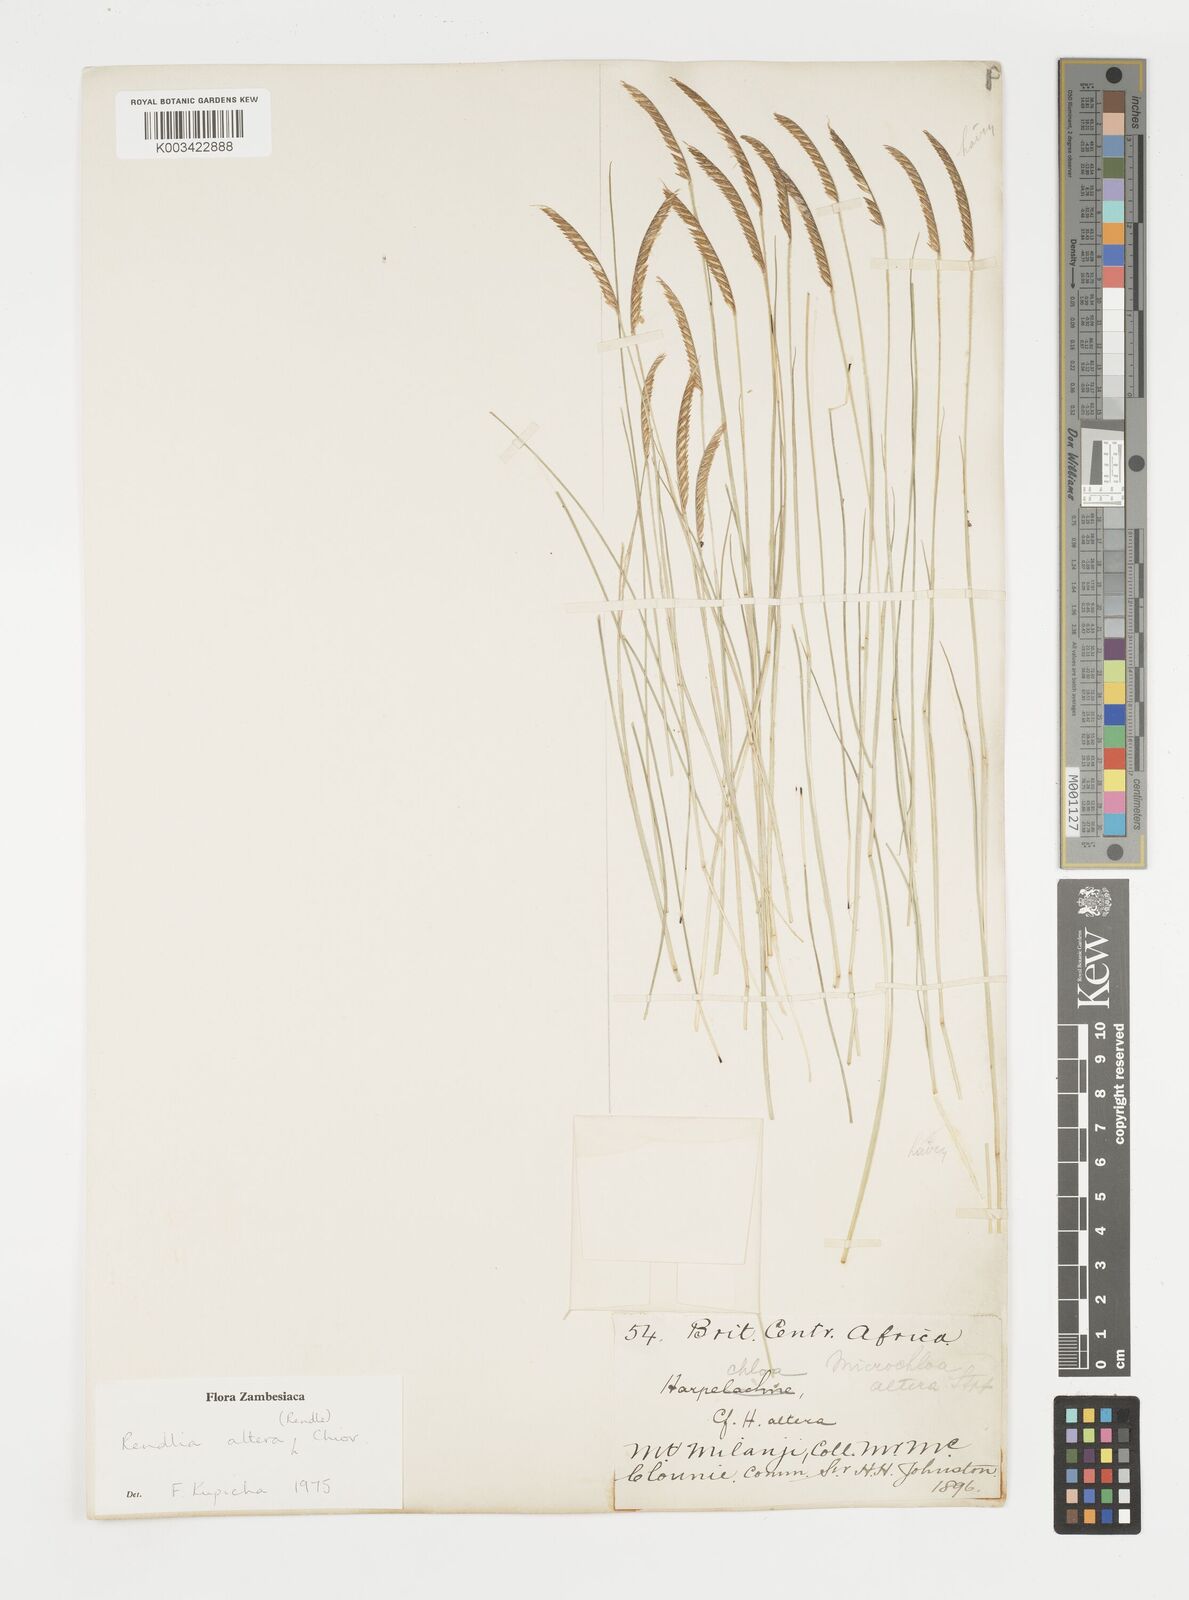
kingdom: Plantae
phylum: Tracheophyta
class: Liliopsida
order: Poales
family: Poaceae
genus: Microchloa
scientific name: Microchloa altera
